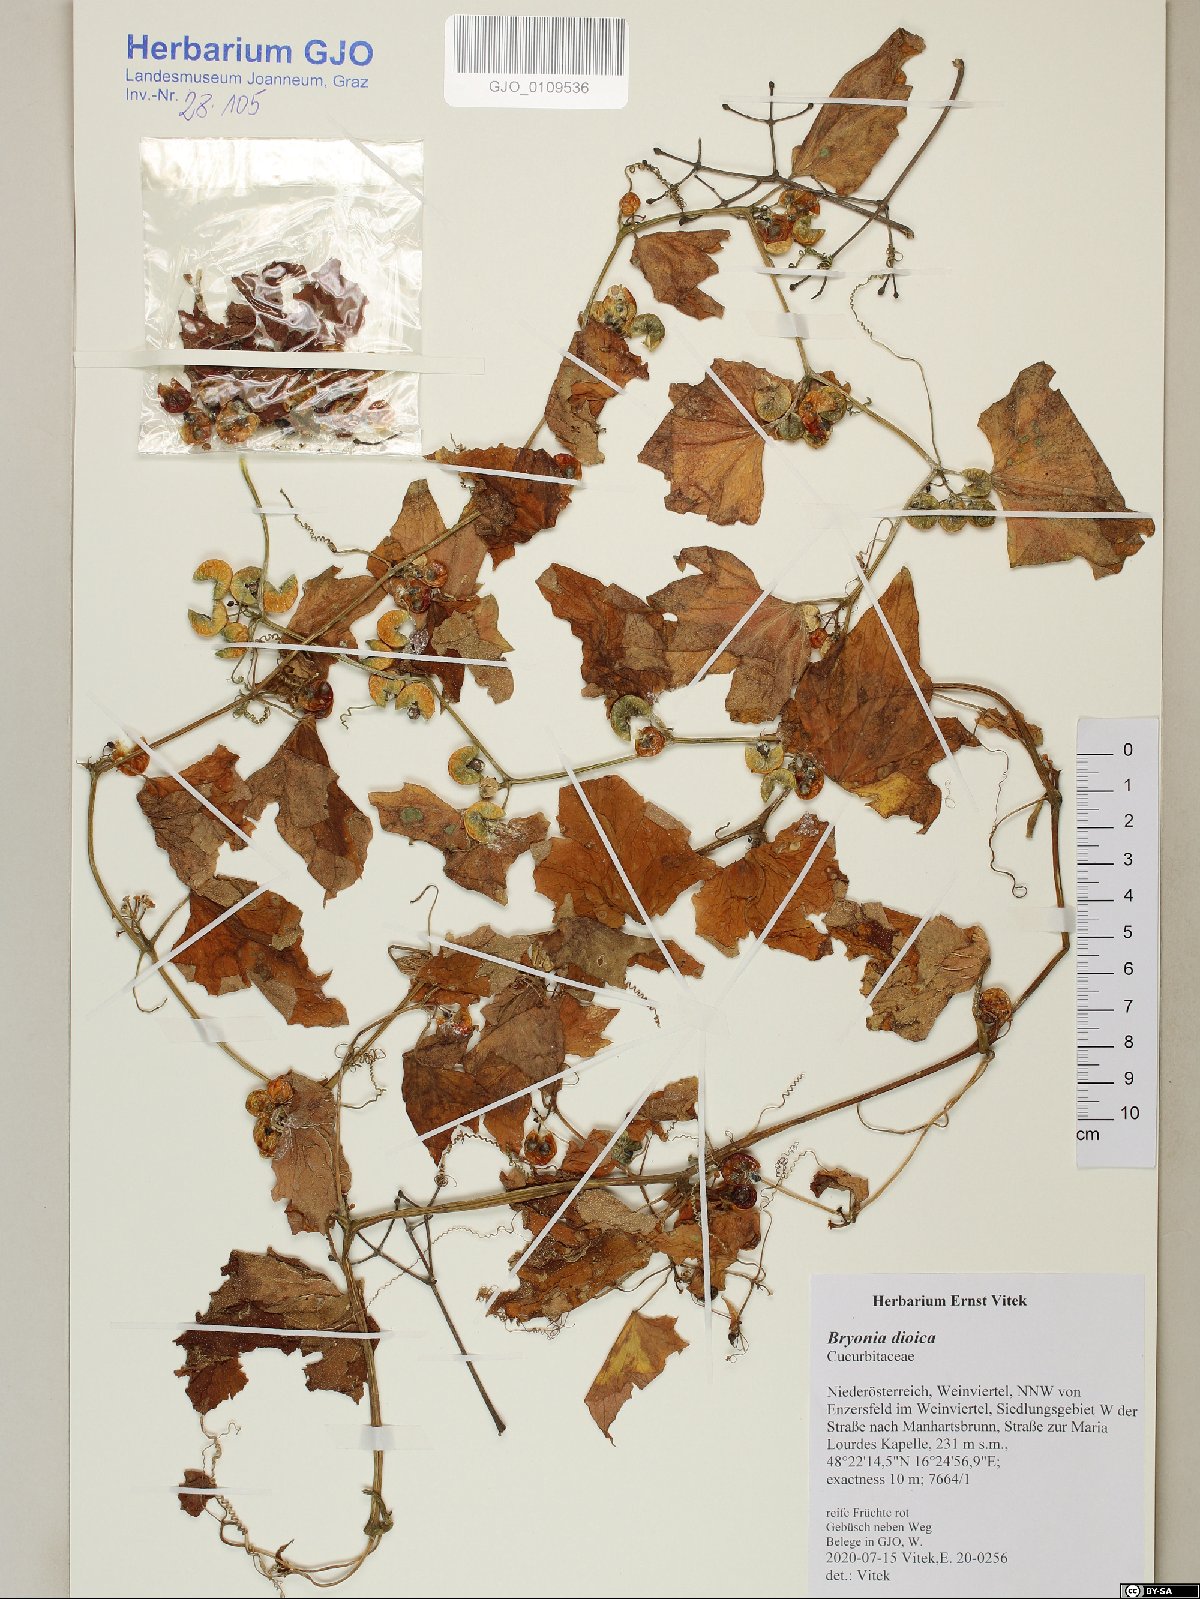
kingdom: Plantae
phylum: Tracheophyta
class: Magnoliopsida
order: Cucurbitales
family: Cucurbitaceae
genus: Bryonia
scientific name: Bryonia dioica
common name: White bryony
